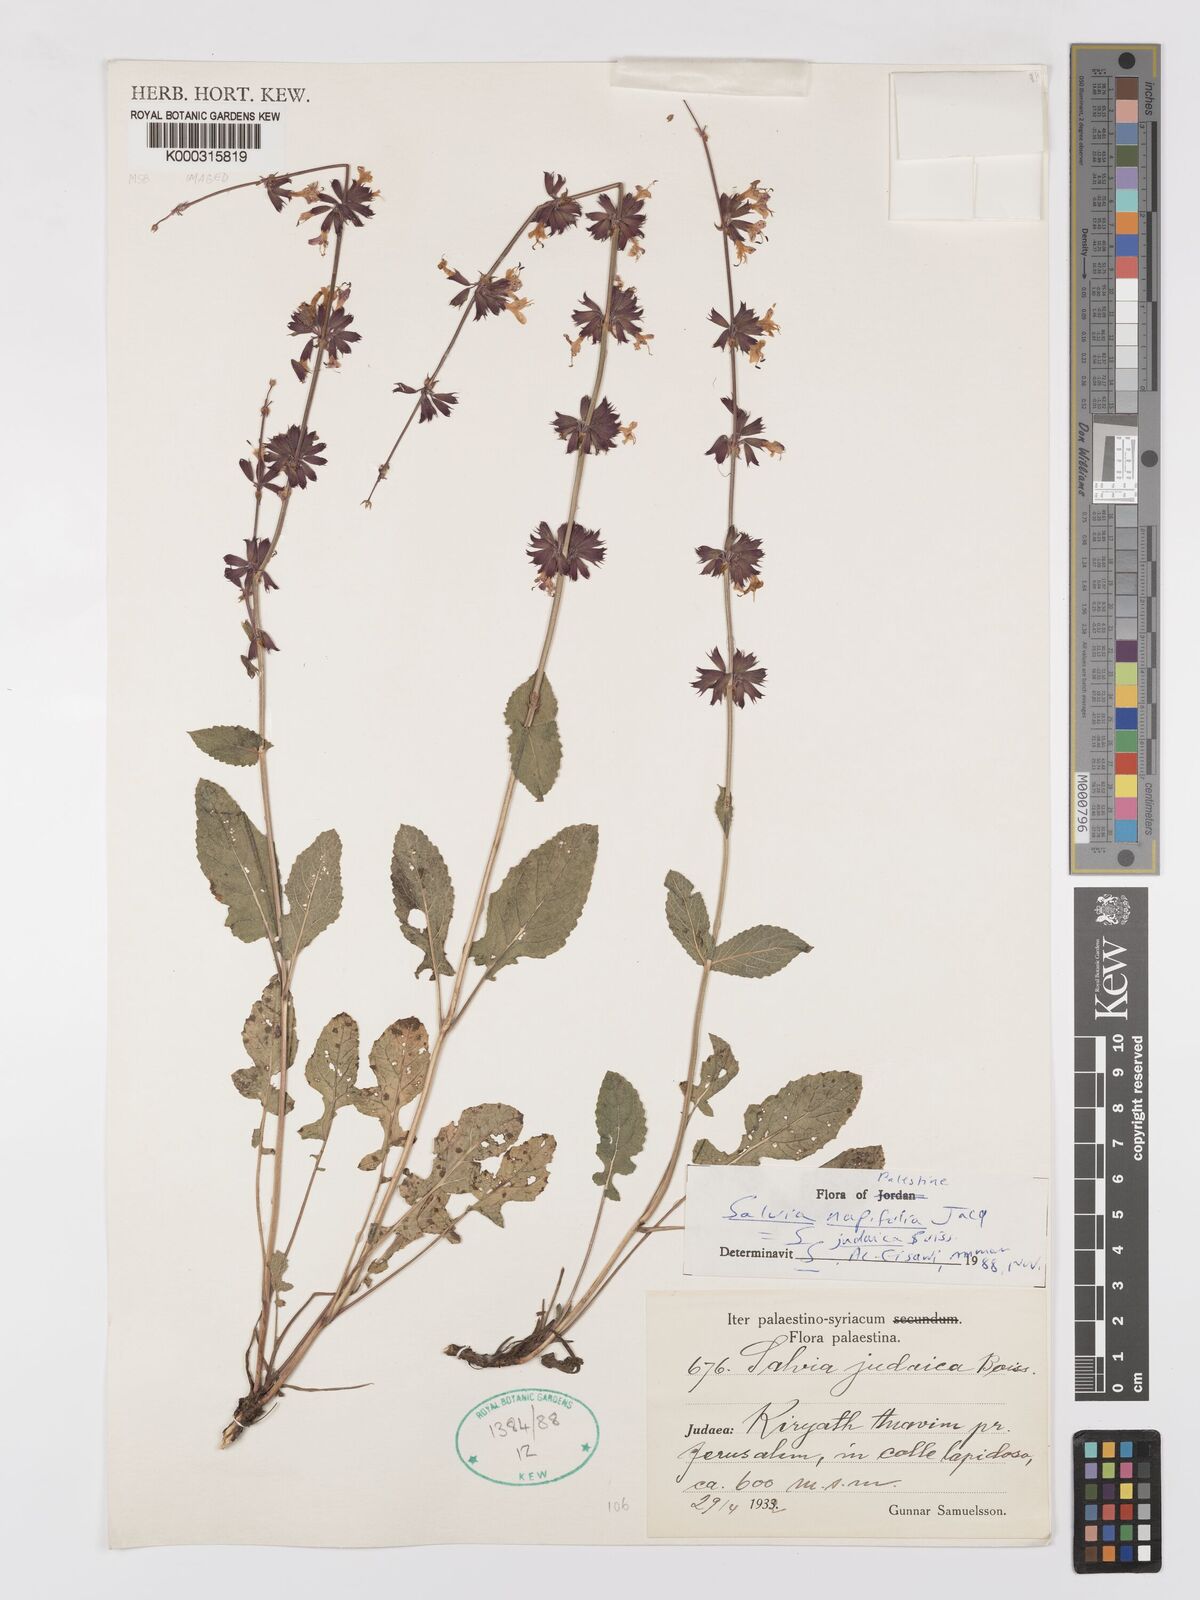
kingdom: Plantae
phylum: Tracheophyta
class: Magnoliopsida
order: Lamiales
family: Lamiaceae
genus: Salvia
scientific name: Salvia judaica
